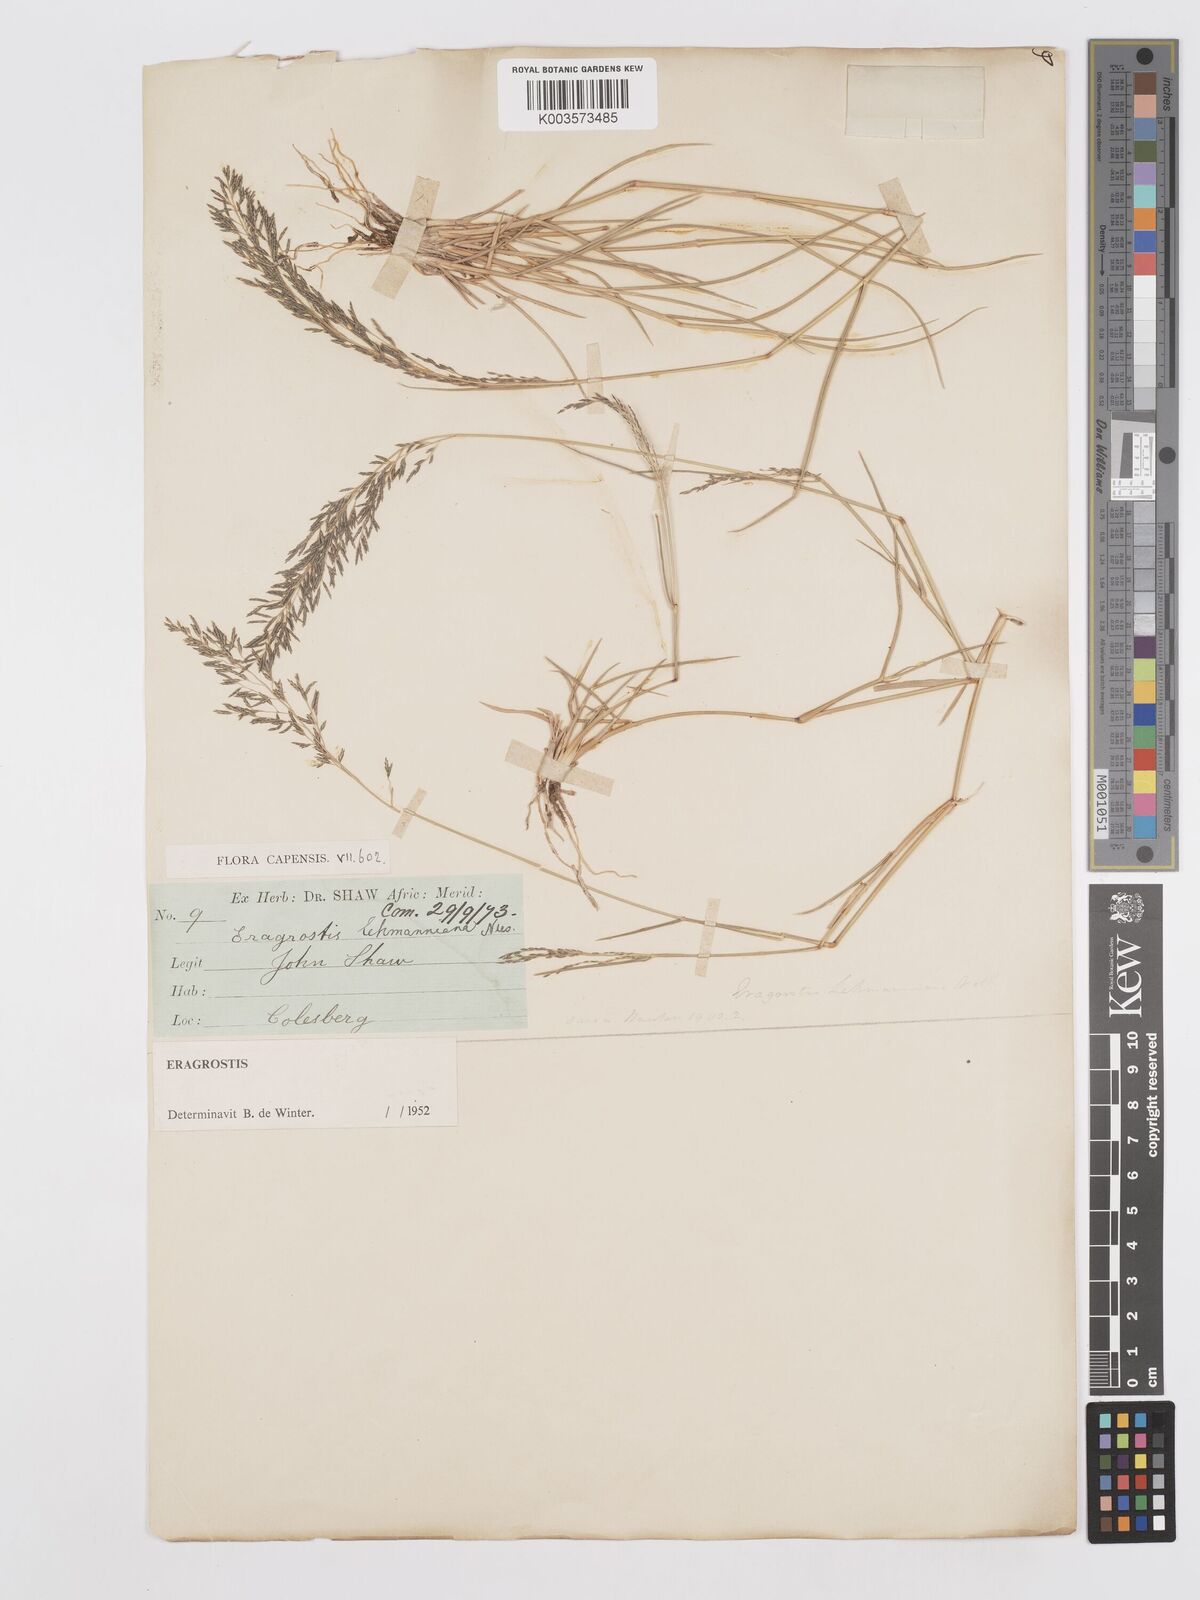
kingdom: Plantae
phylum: Tracheophyta
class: Liliopsida
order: Poales
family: Poaceae
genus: Eragrostis
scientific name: Eragrostis lehmanniana
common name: Lehmann lovegrass
